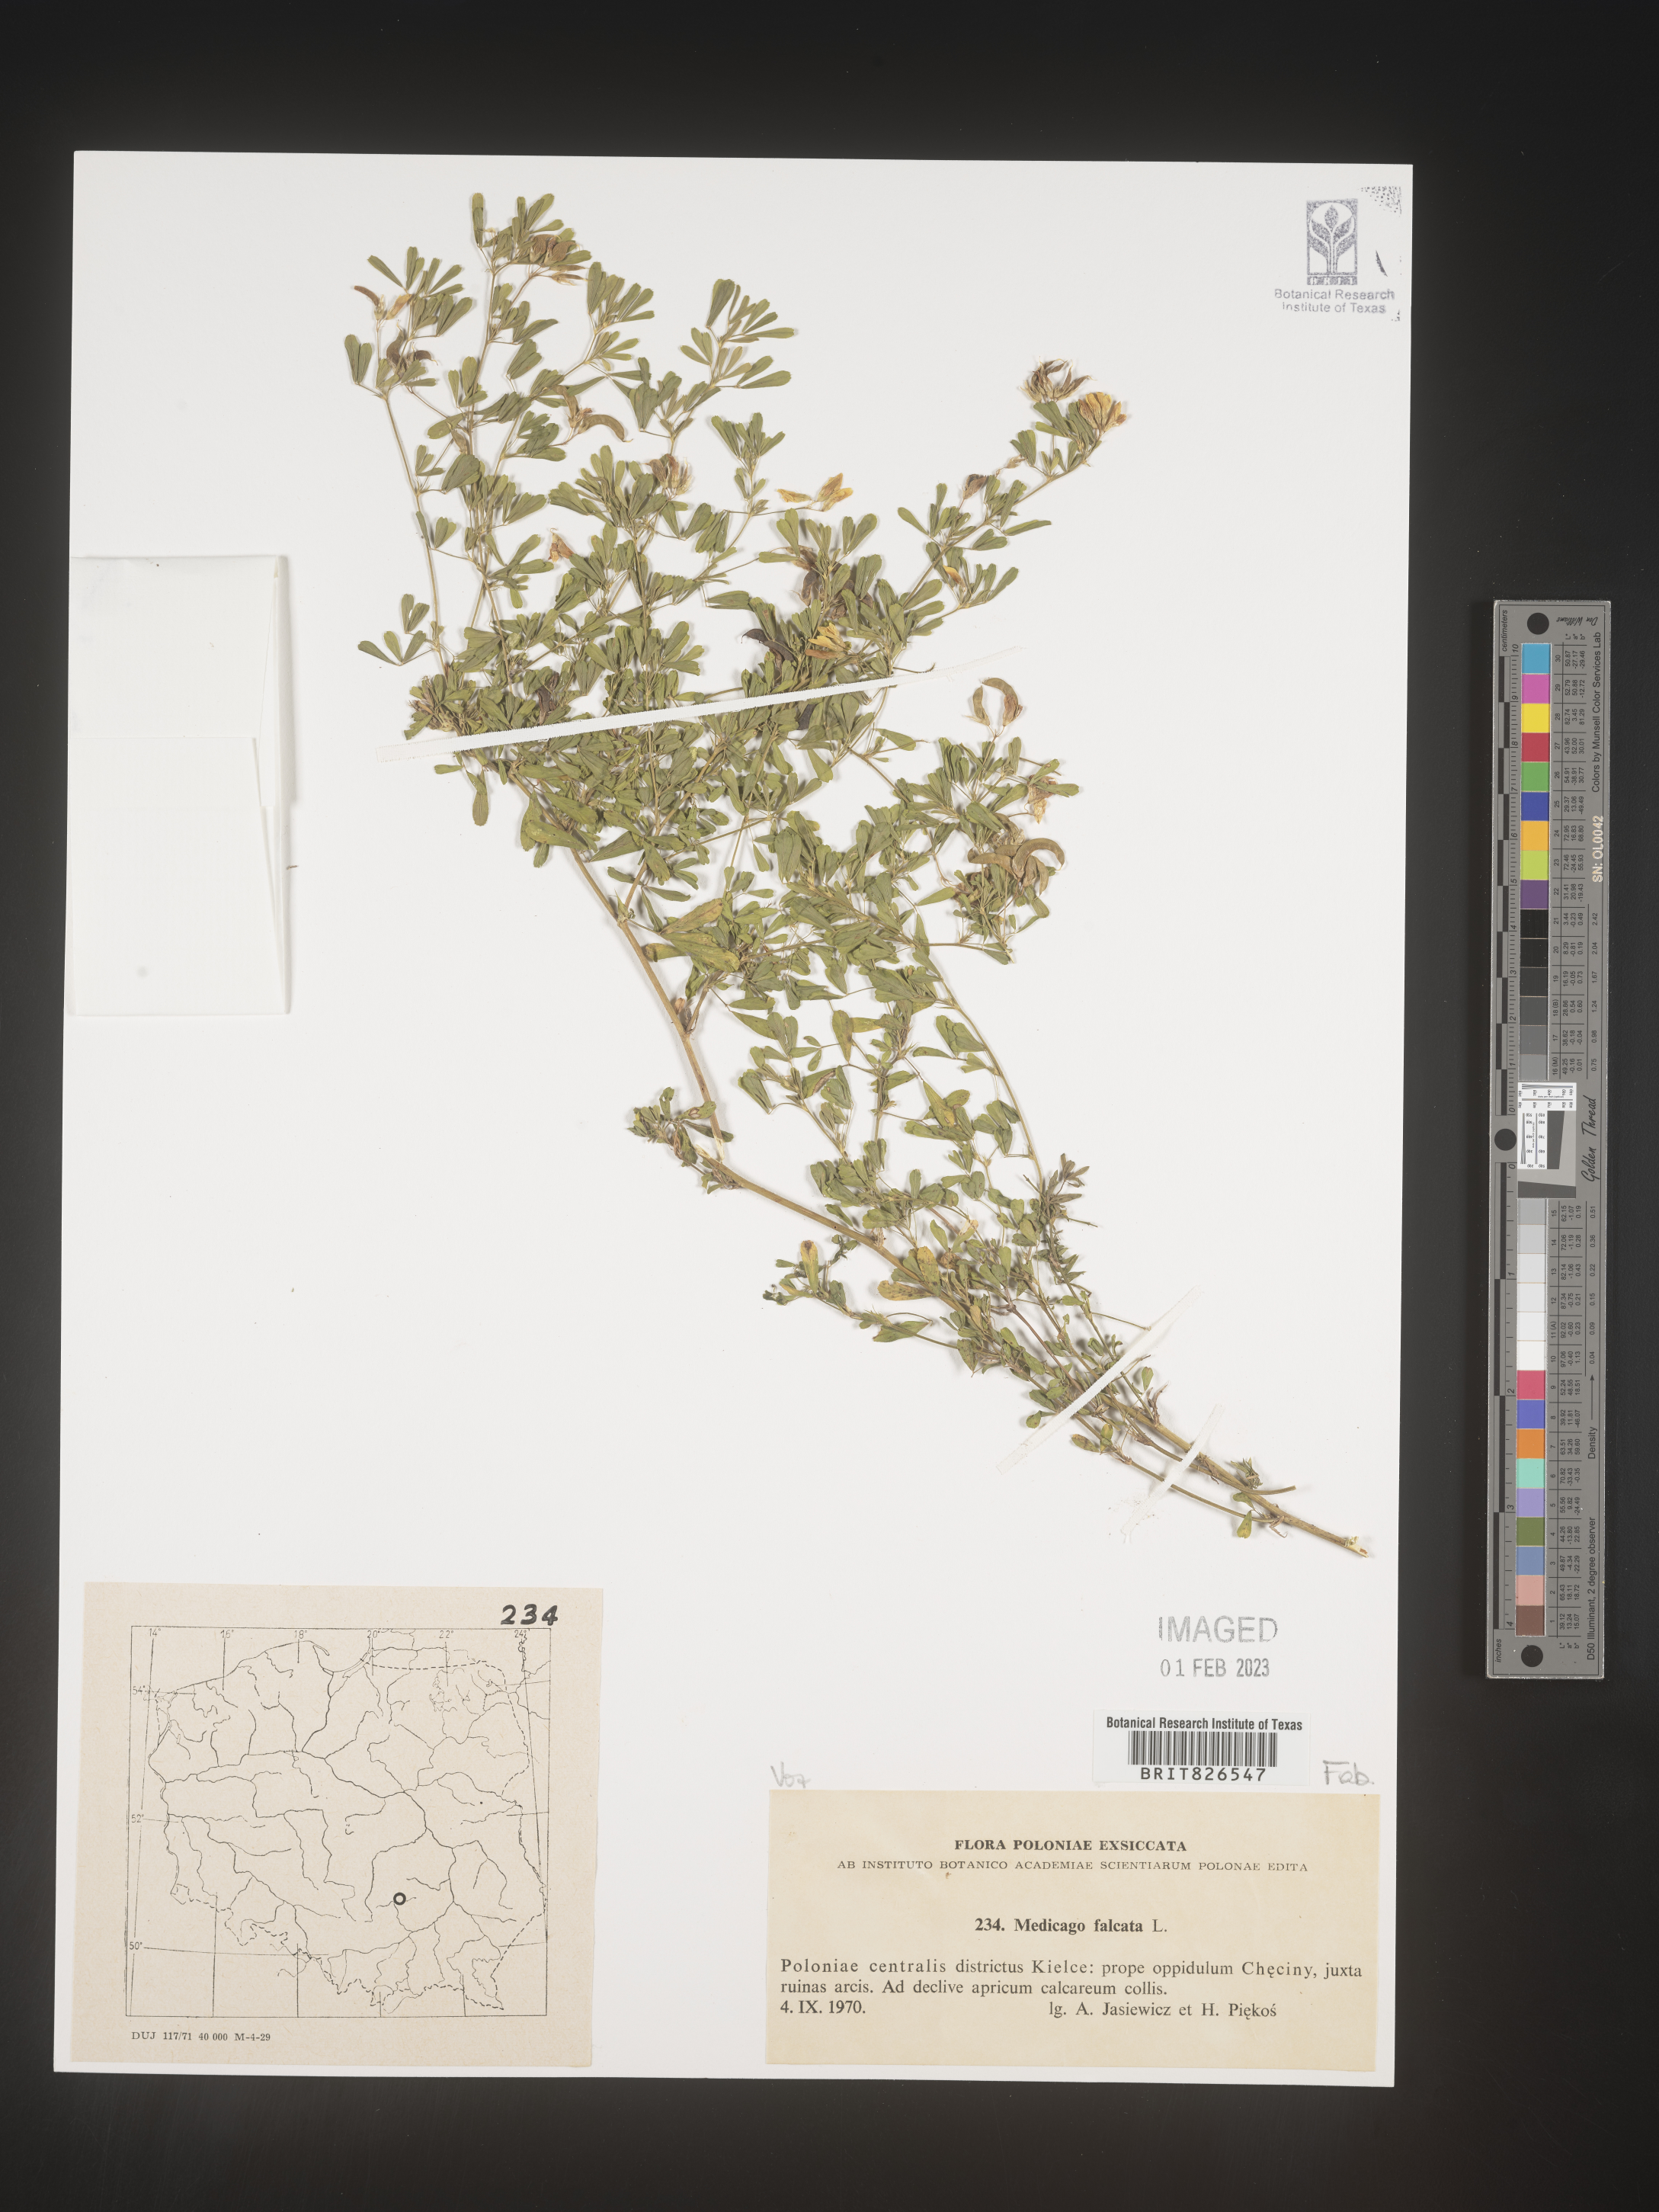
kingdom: Plantae
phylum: Tracheophyta
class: Magnoliopsida
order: Fabales
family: Fabaceae
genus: Medicago
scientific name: Medicago
